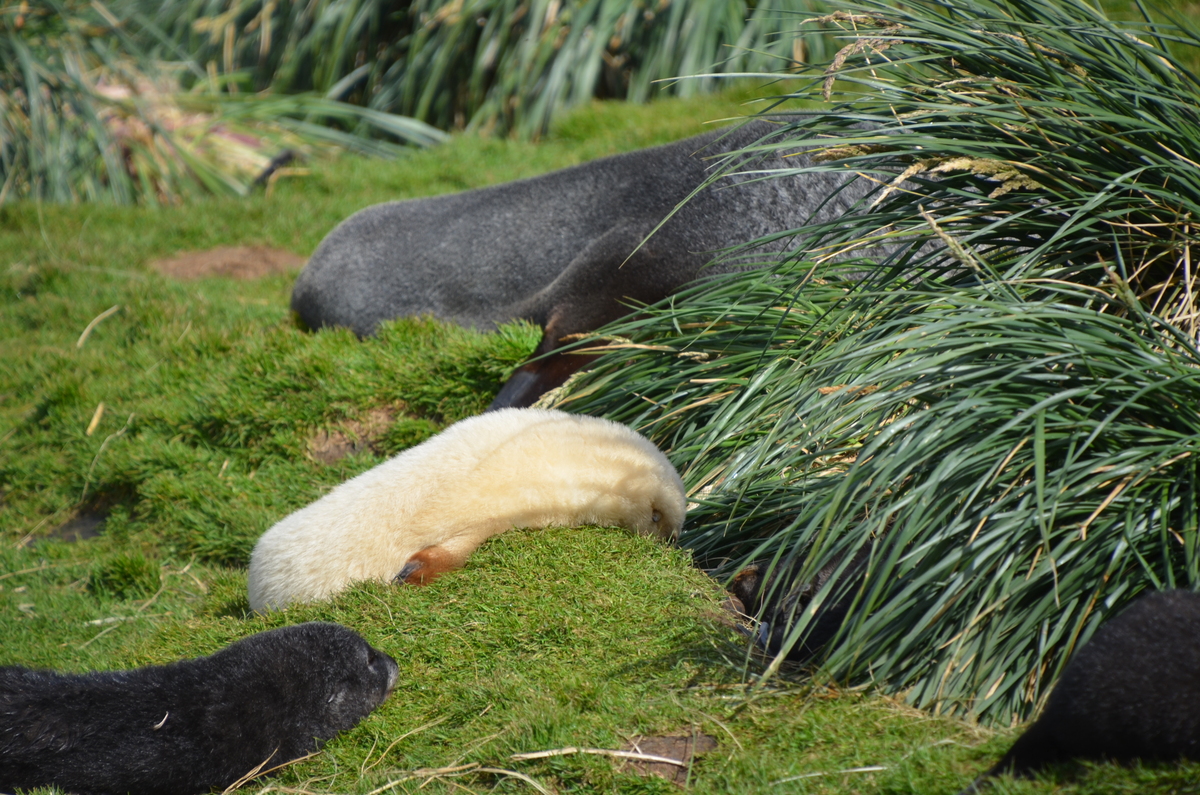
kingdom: Animalia
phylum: Chordata
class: Mammalia
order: Carnivora
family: Otariidae
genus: Arctocephalus
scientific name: Arctocephalus gazella
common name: Antarctic Fur Seal
